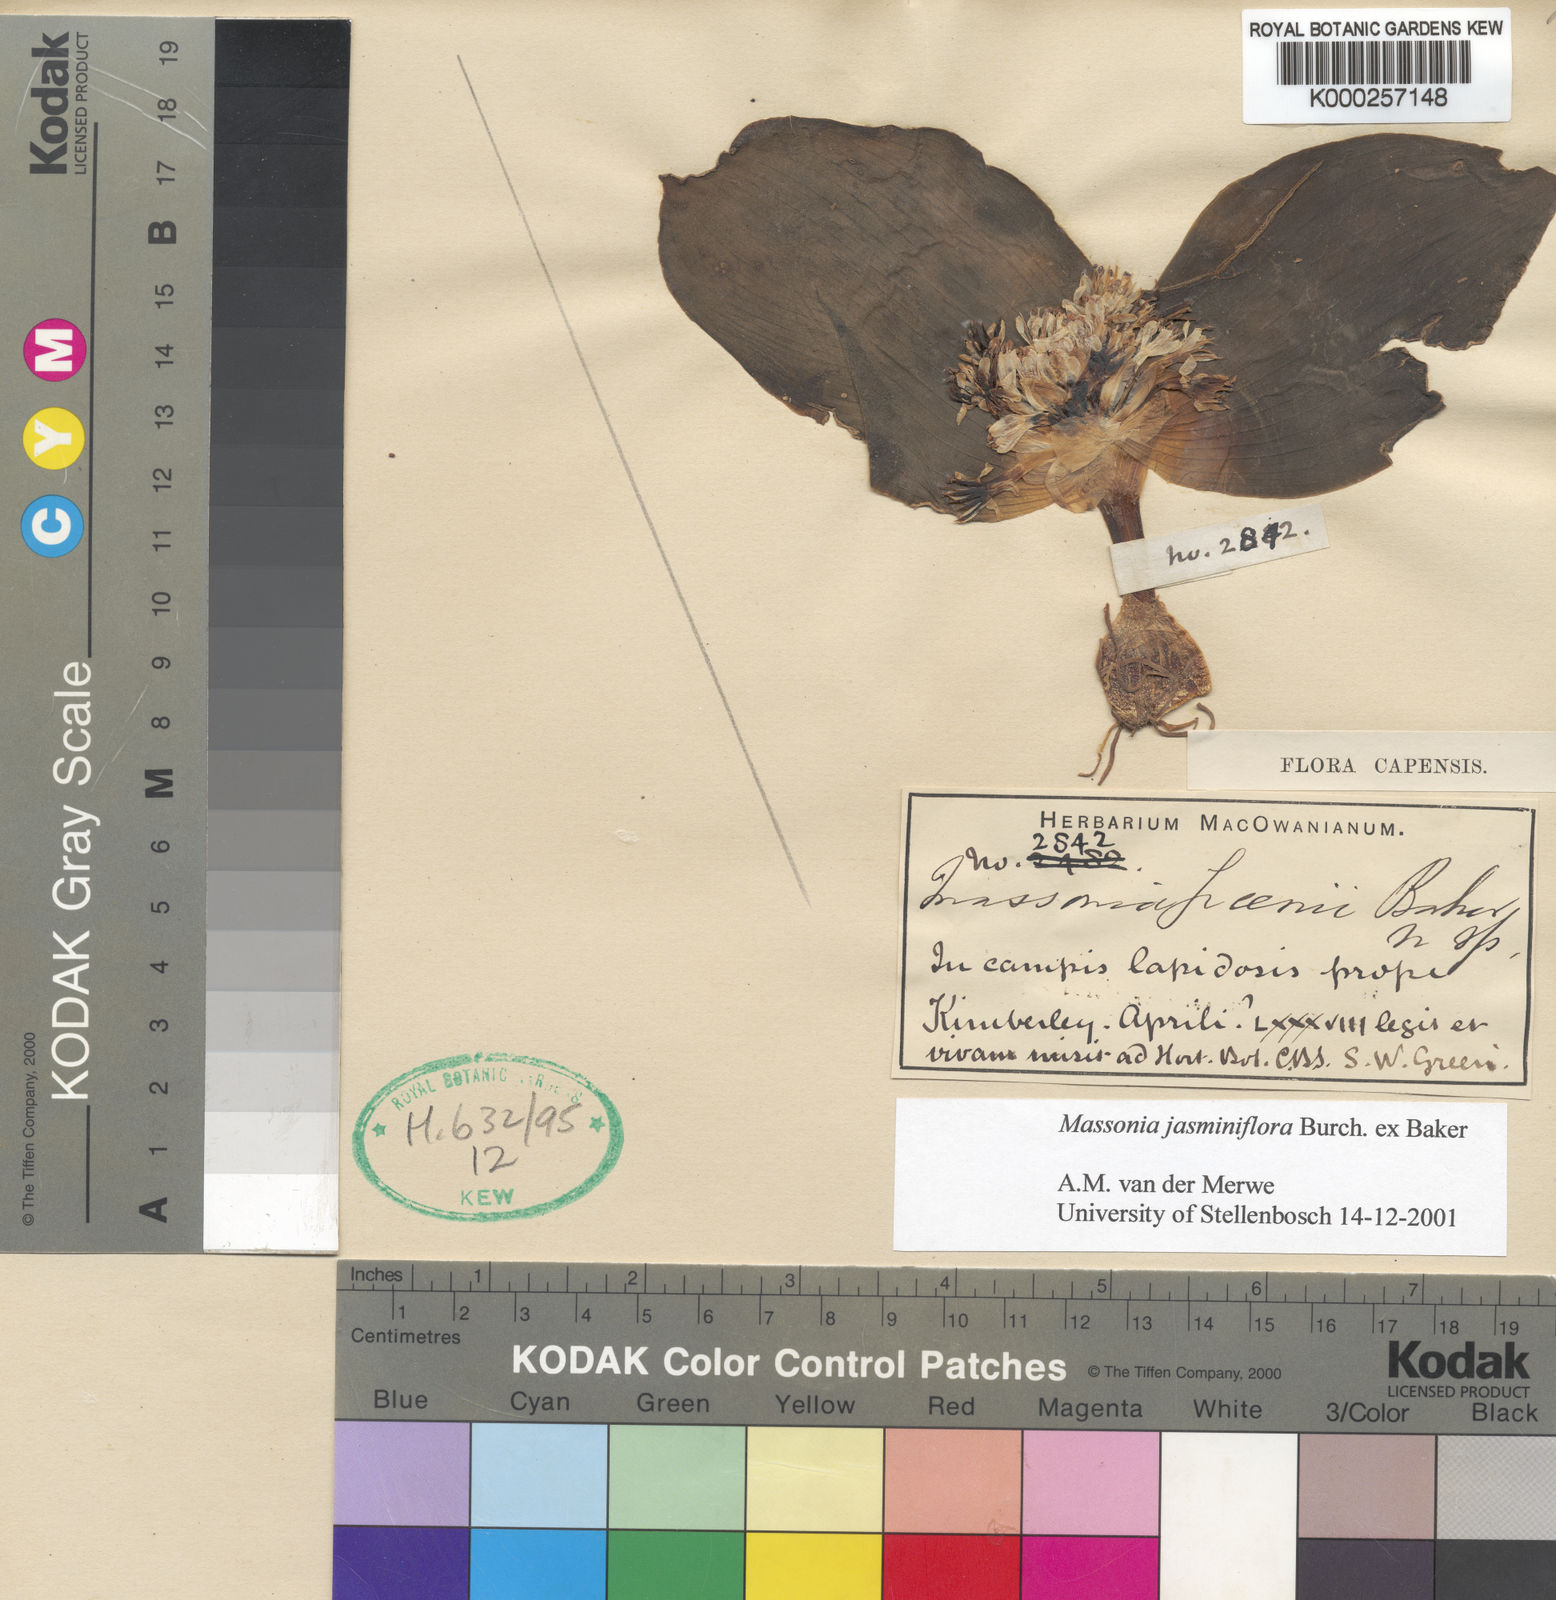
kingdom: Plantae
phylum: Tracheophyta
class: Liliopsida
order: Asparagales
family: Asparagaceae
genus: Massonia
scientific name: Massonia jasminiflora
